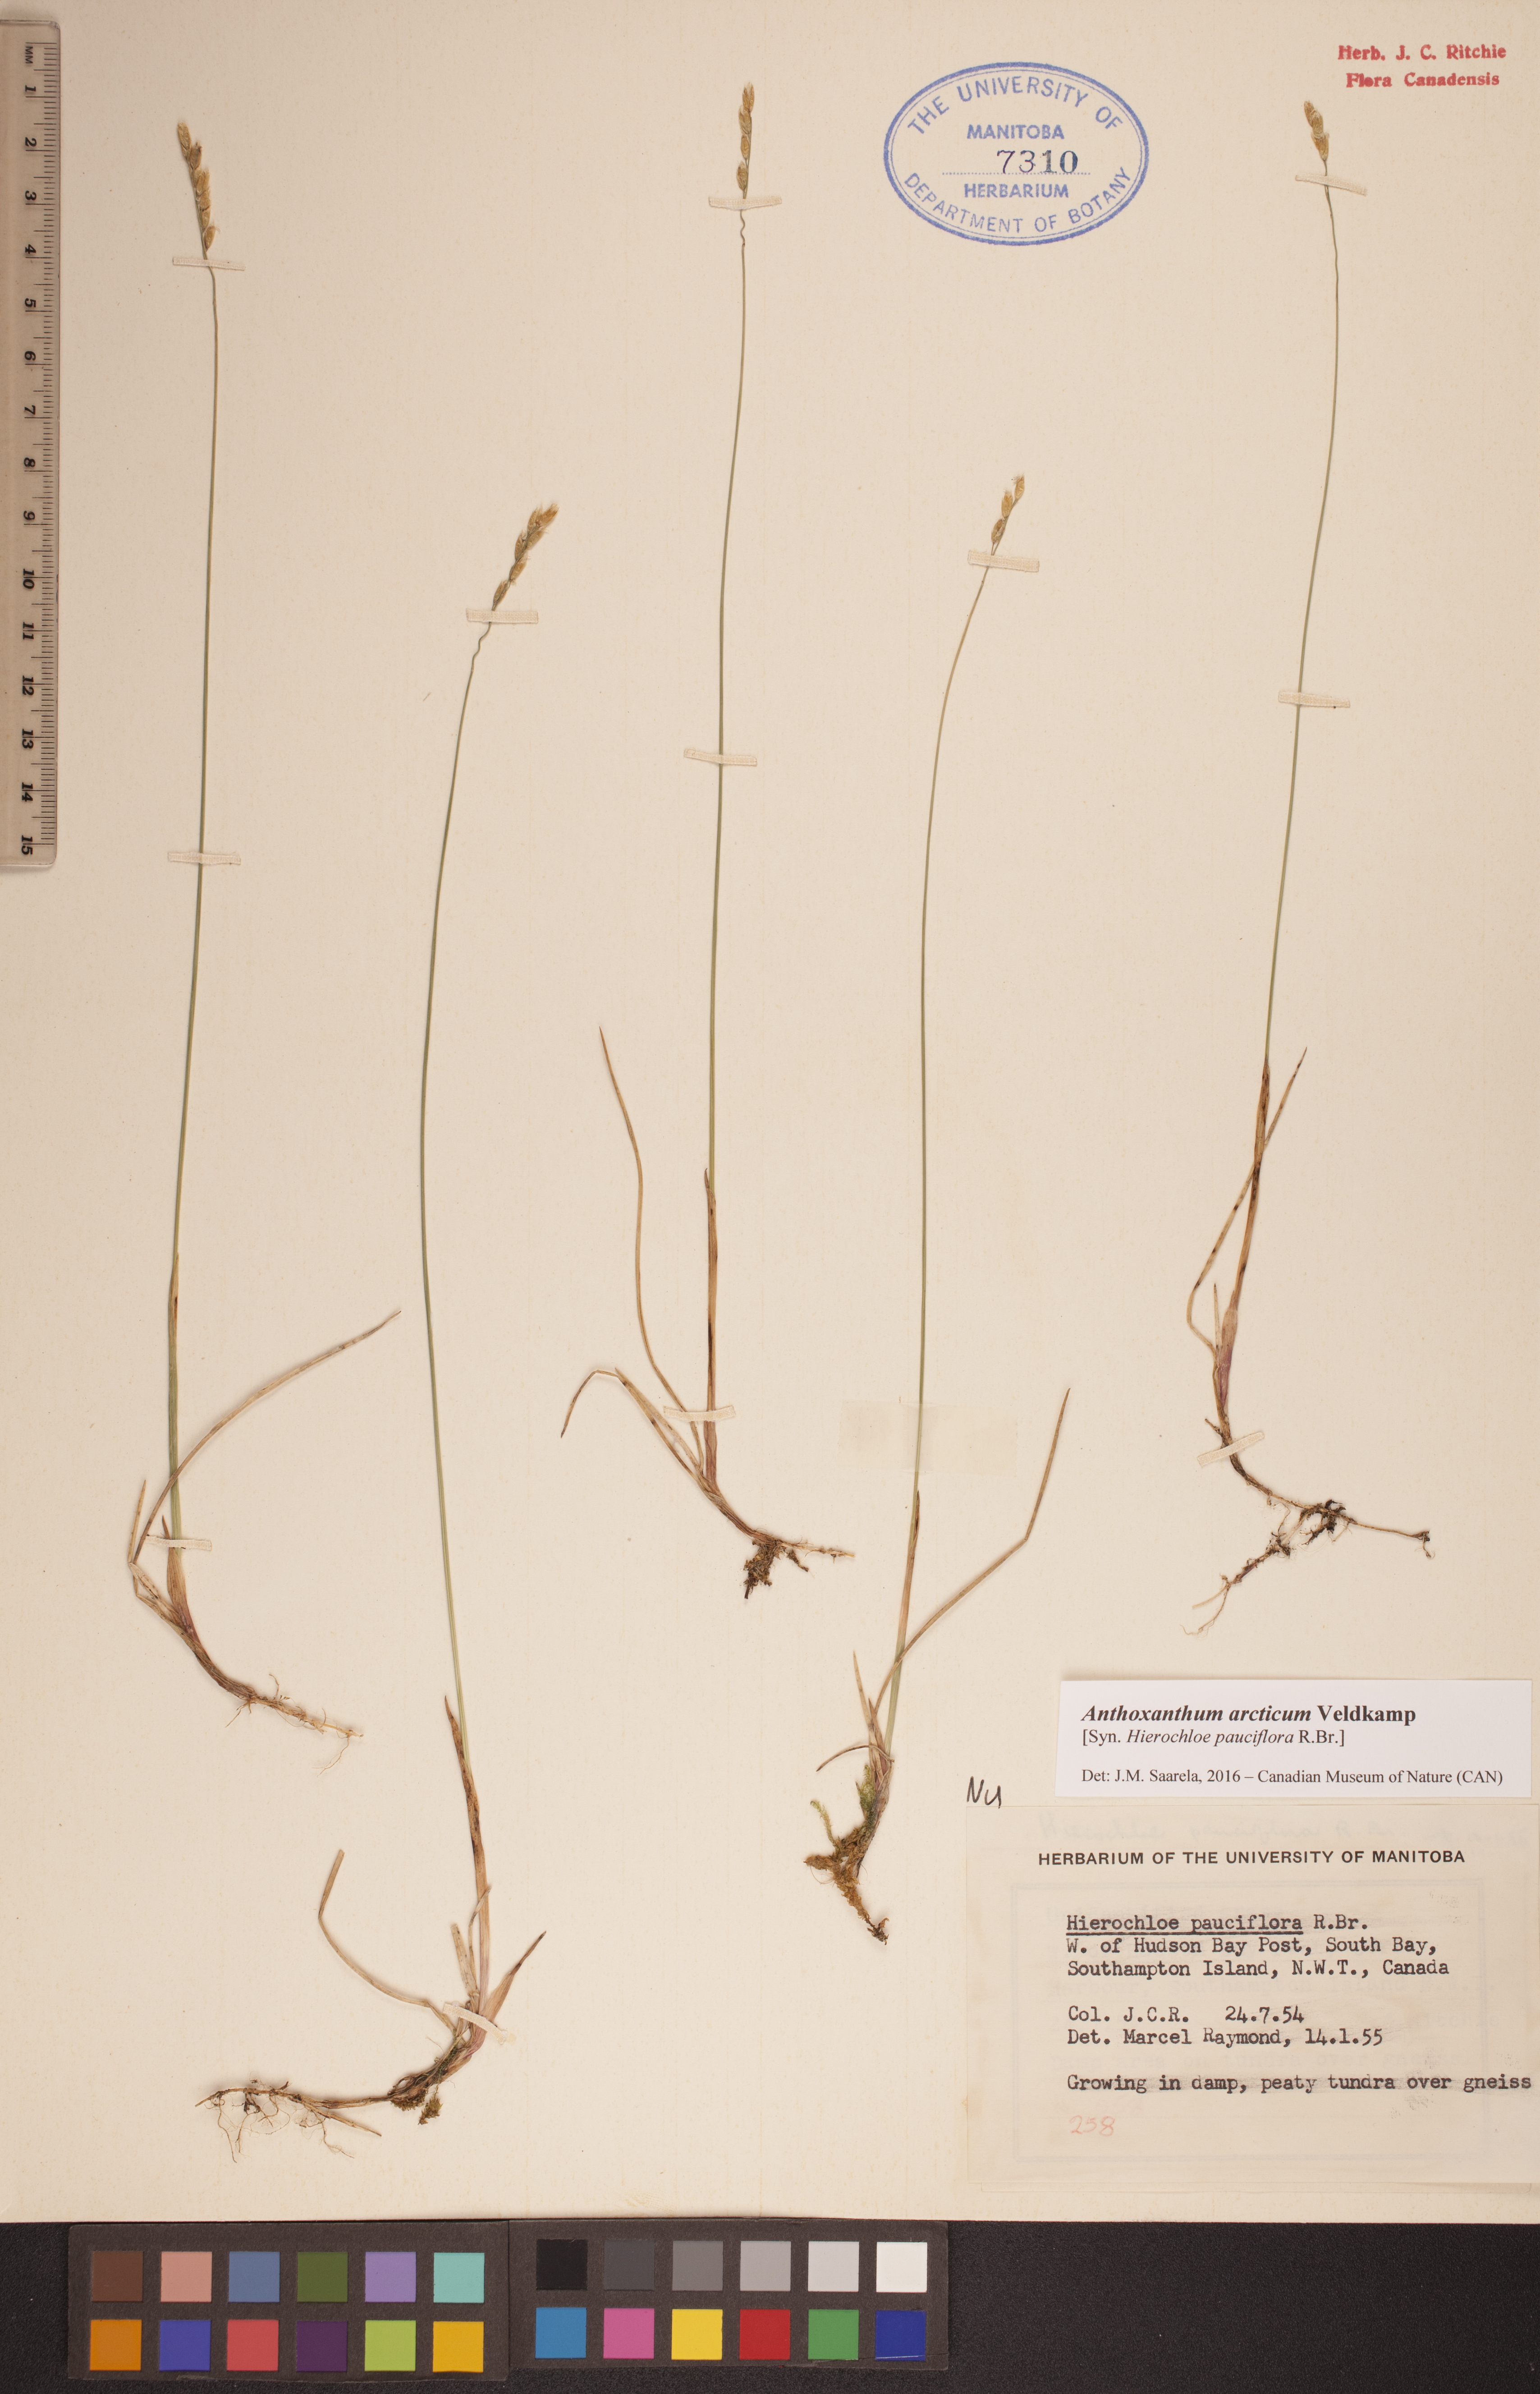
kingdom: Plantae
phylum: Tracheophyta
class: Liliopsida
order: Poales
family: Poaceae
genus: Anthoxanthum
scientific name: Anthoxanthum arcticum
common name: Arctic sweetgrass
